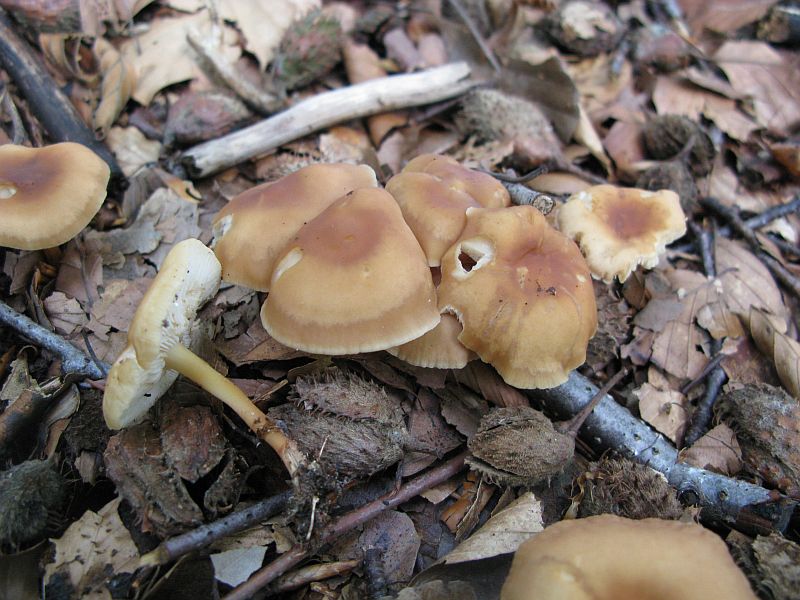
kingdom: Fungi
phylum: Basidiomycota
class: Agaricomycetes
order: Agaricales
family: Omphalotaceae
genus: Gymnopus
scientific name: Gymnopus dryophilus
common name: løv-fladhat
